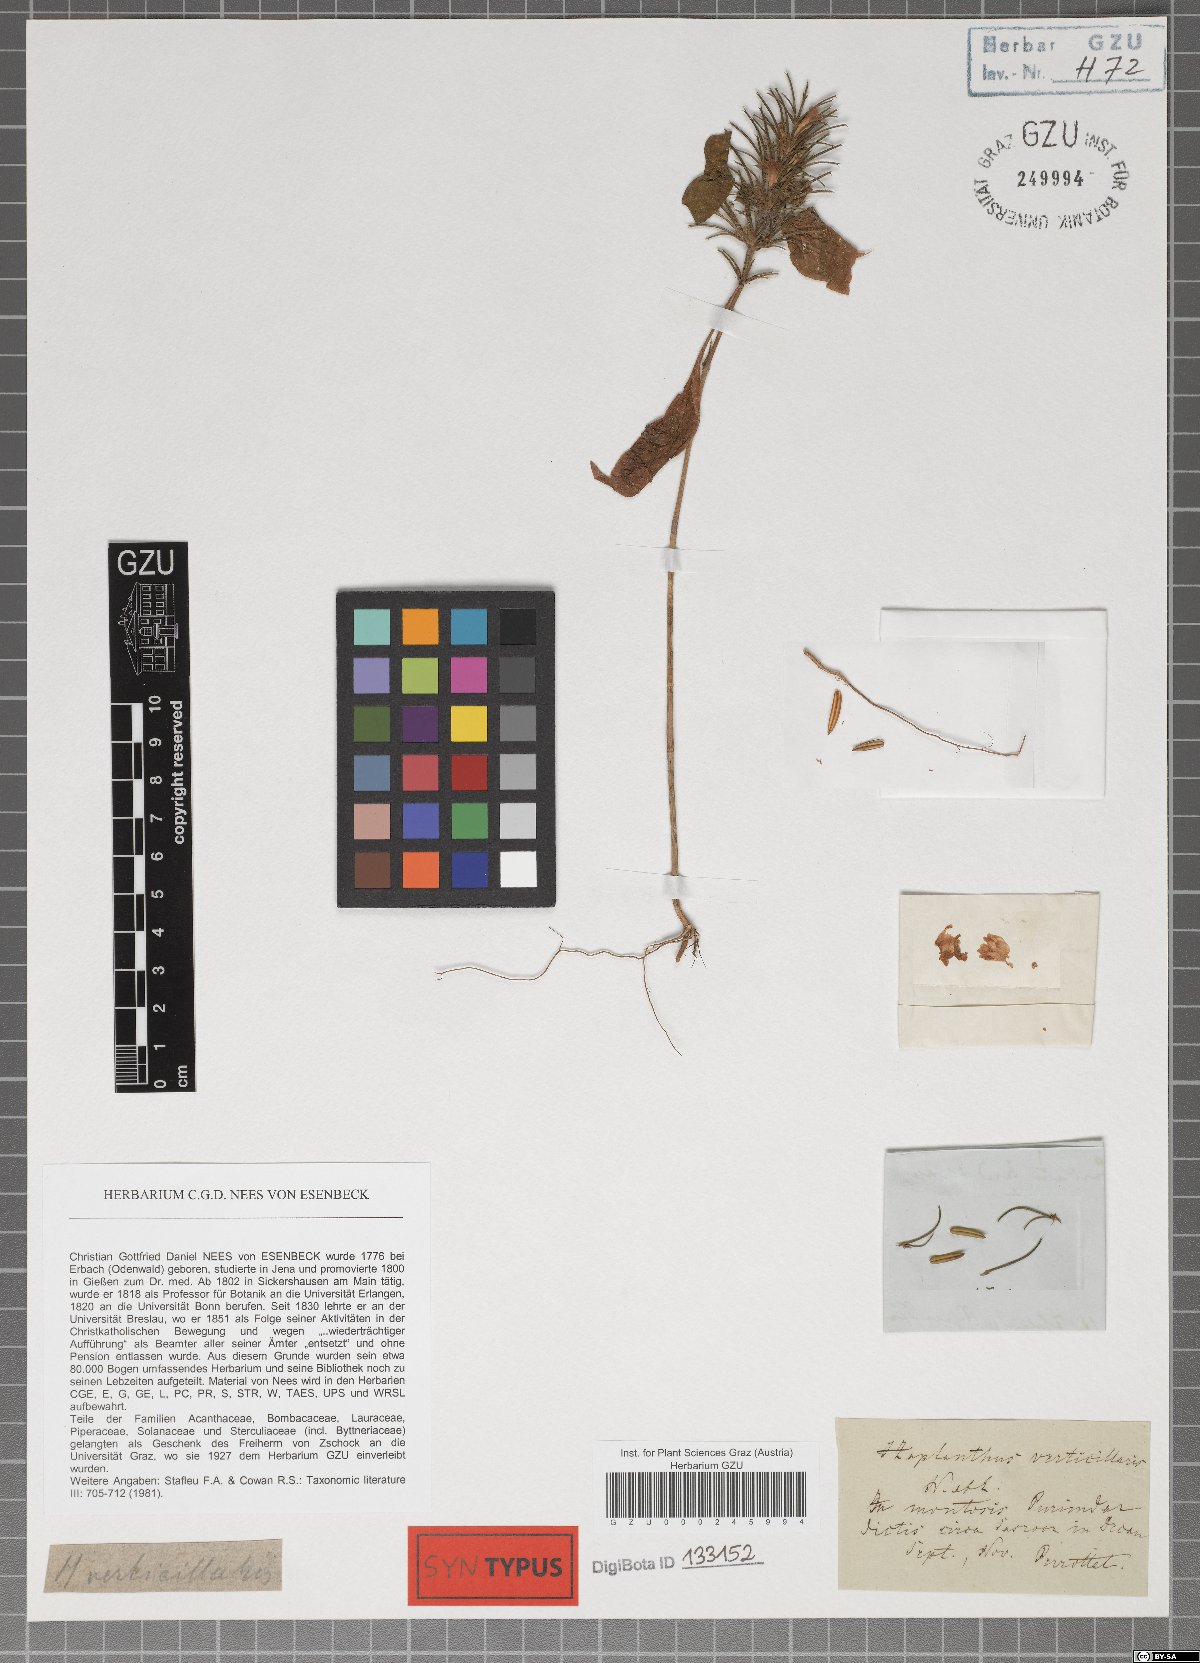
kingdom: Plantae
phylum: Tracheophyta
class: Magnoliopsida
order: Lamiales
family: Acanthaceae
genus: Haplanthodes
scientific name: Haplanthodes verticillatus
